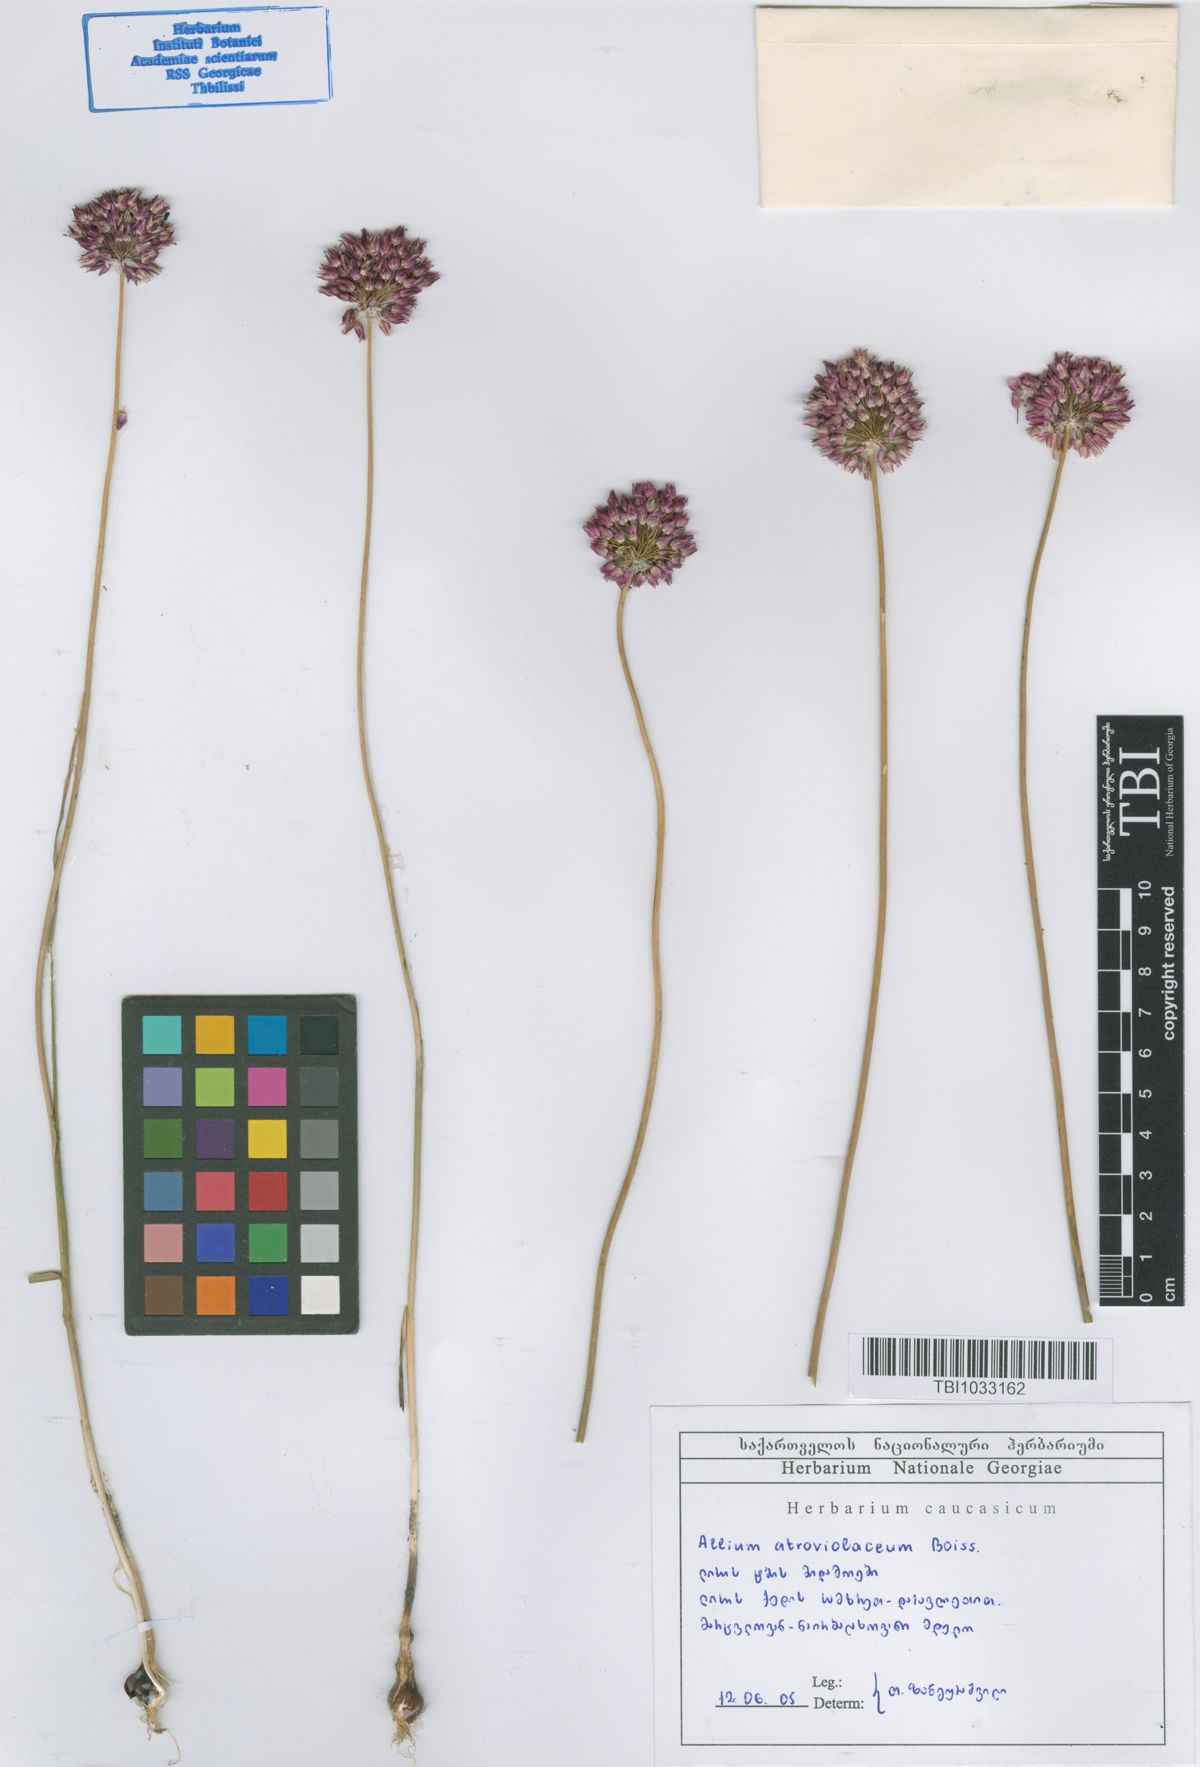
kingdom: Plantae
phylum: Tracheophyta
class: Liliopsida
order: Asparagales
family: Amaryllidaceae
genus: Allium
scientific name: Allium atroviolaceum
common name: Broadleaf wild leek
